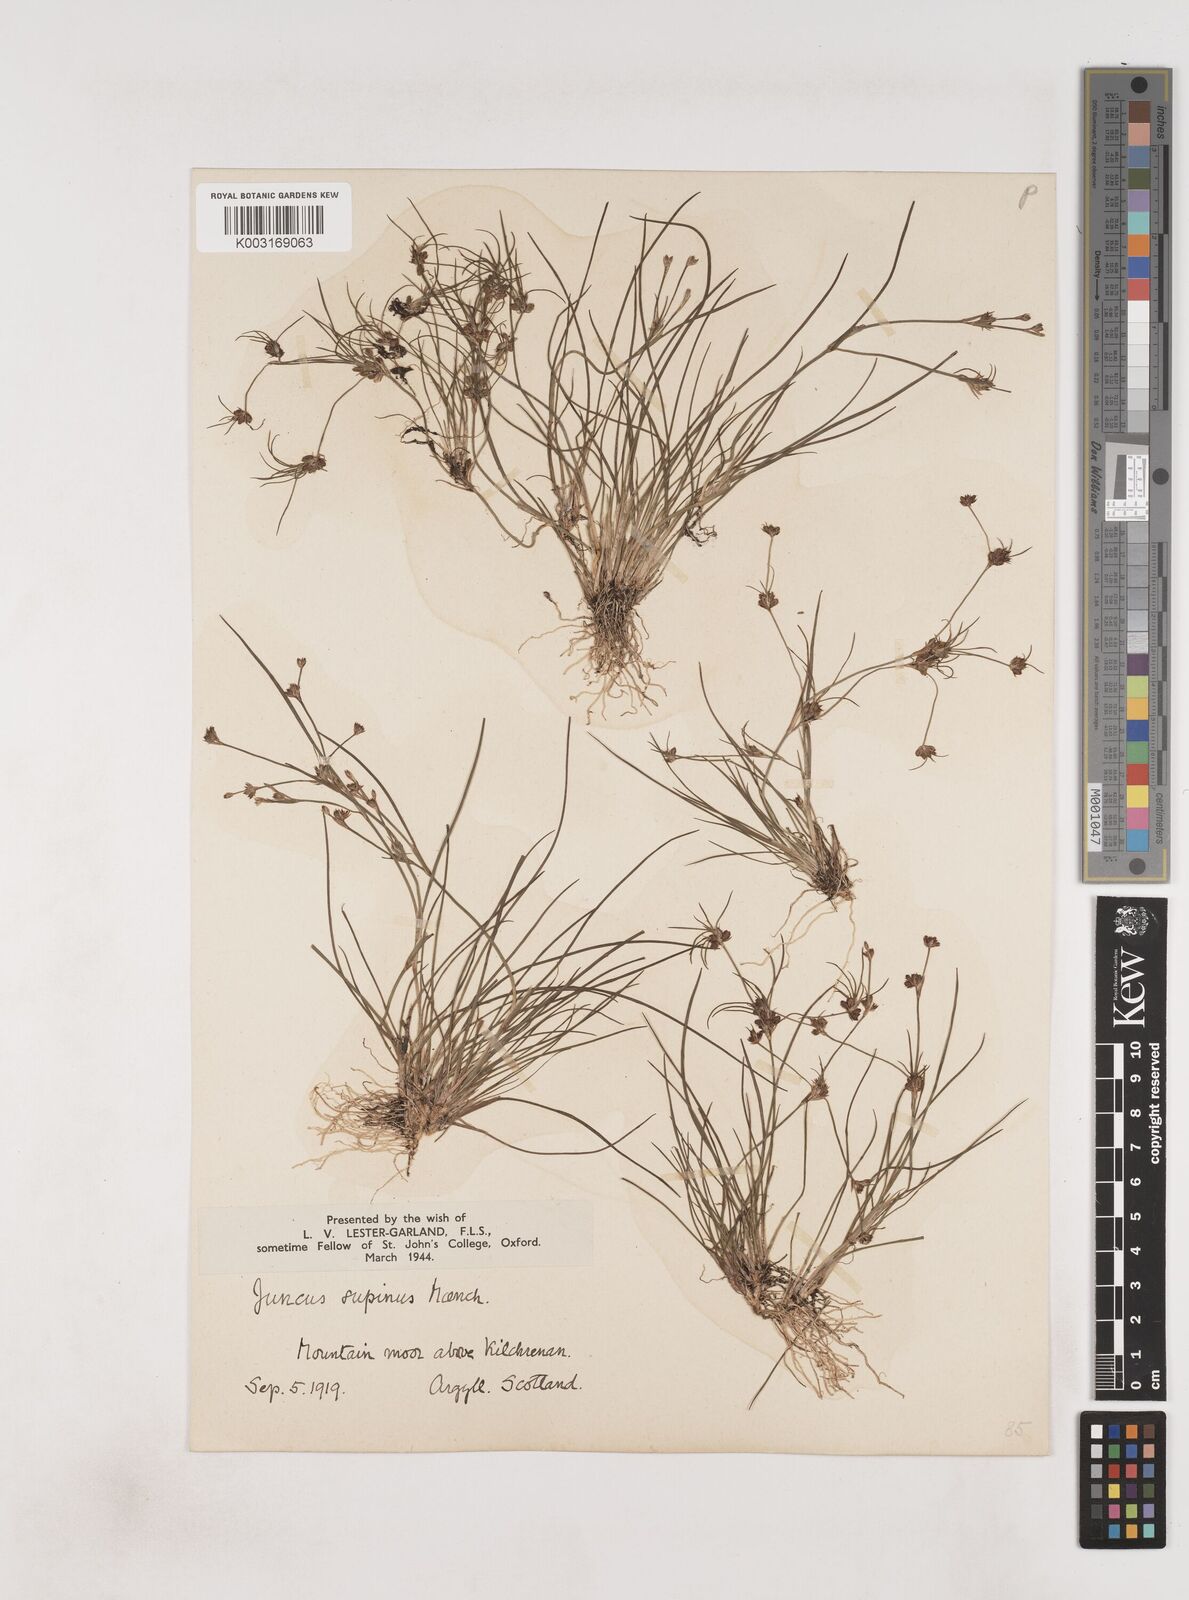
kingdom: Plantae
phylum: Tracheophyta
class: Liliopsida
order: Poales
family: Juncaceae
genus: Juncus
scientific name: Juncus bulbosus
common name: Bulbous rush
